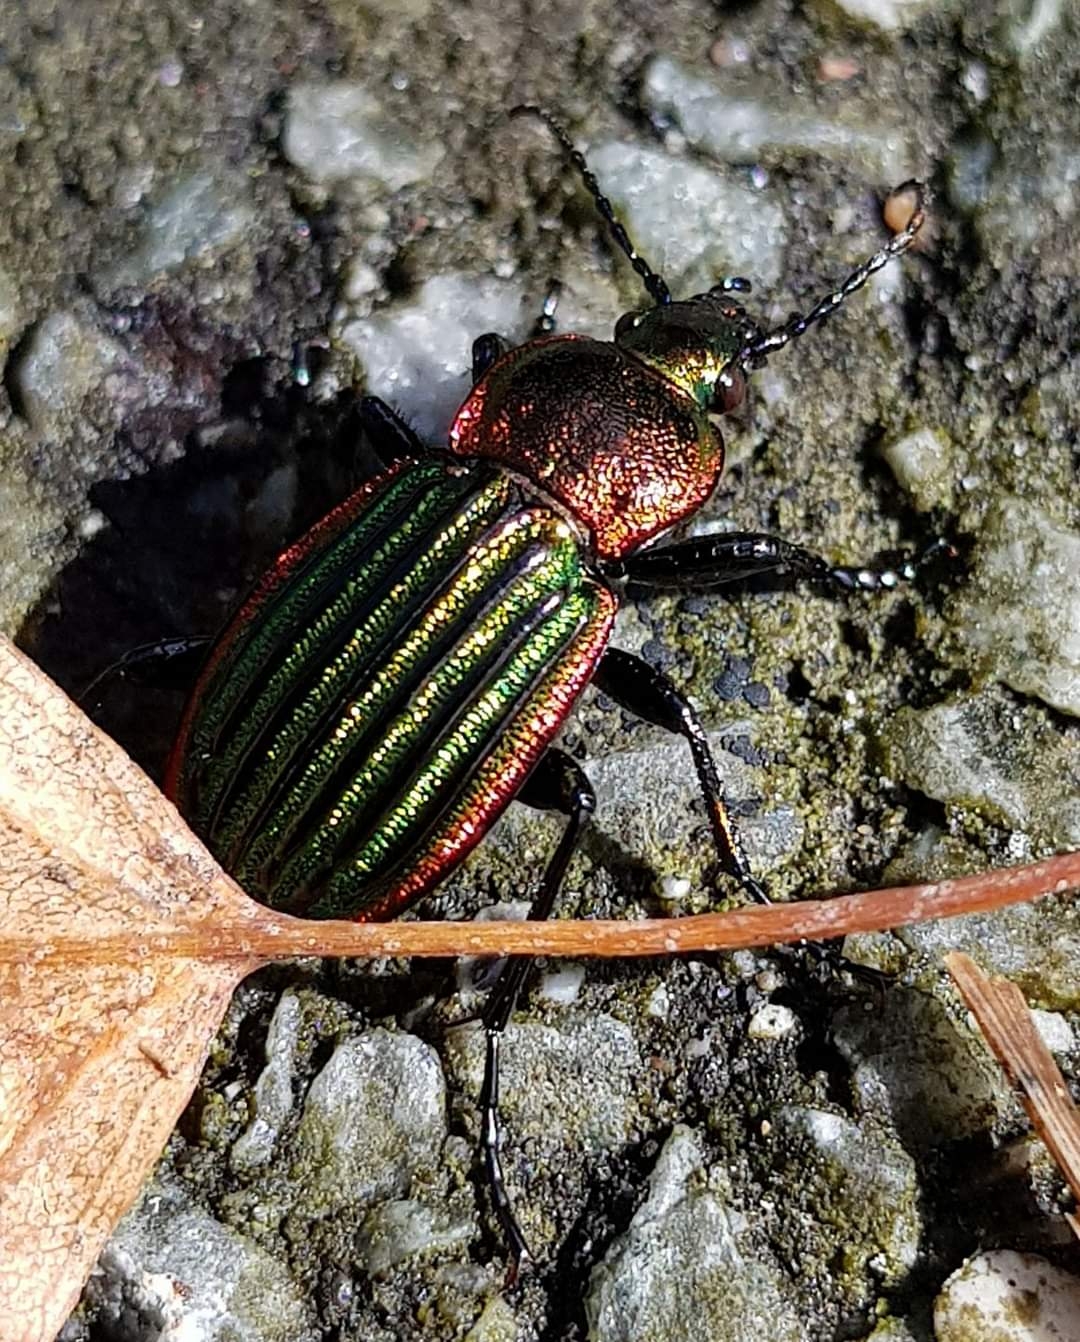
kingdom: Animalia
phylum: Arthropoda
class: Insecta
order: Coleoptera
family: Carabidae
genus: Carabus
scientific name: Carabus nitens
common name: Lille guldløber
